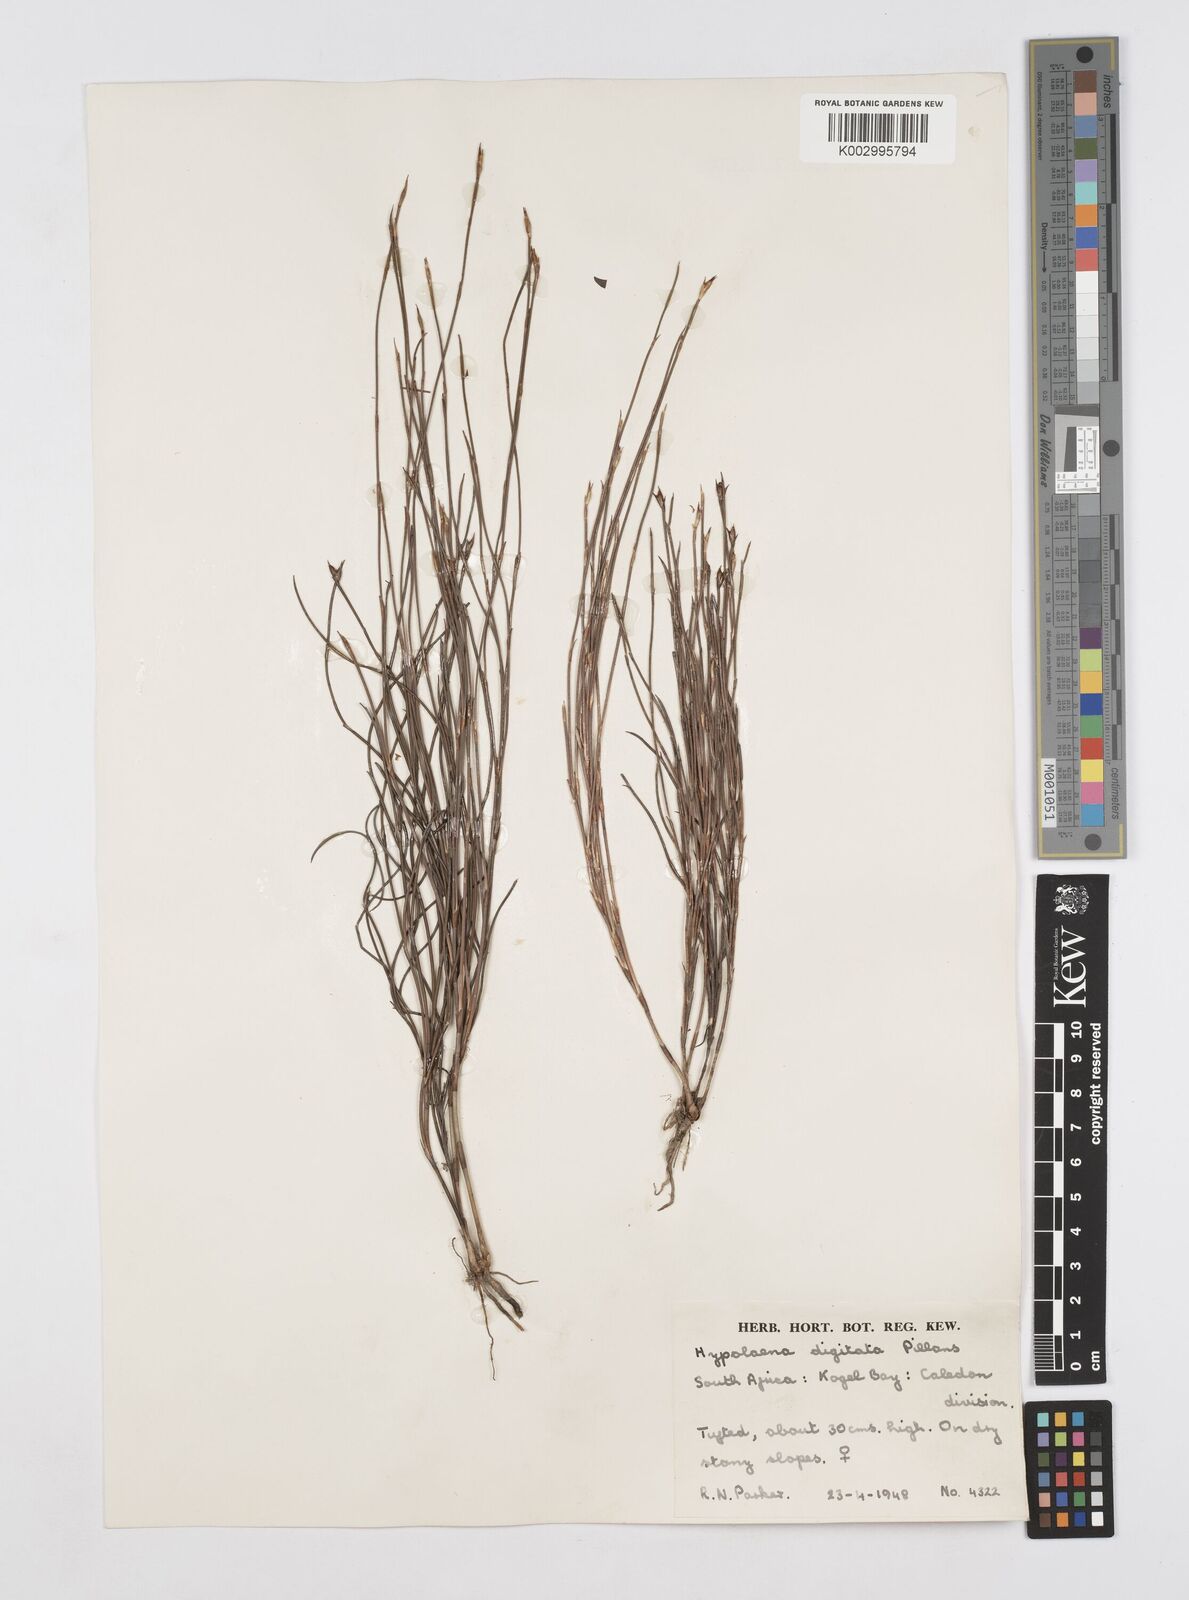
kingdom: Plantae
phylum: Tracheophyta
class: Liliopsida
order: Poales
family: Restionaceae
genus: Mastersiella
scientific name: Mastersiella digitata
